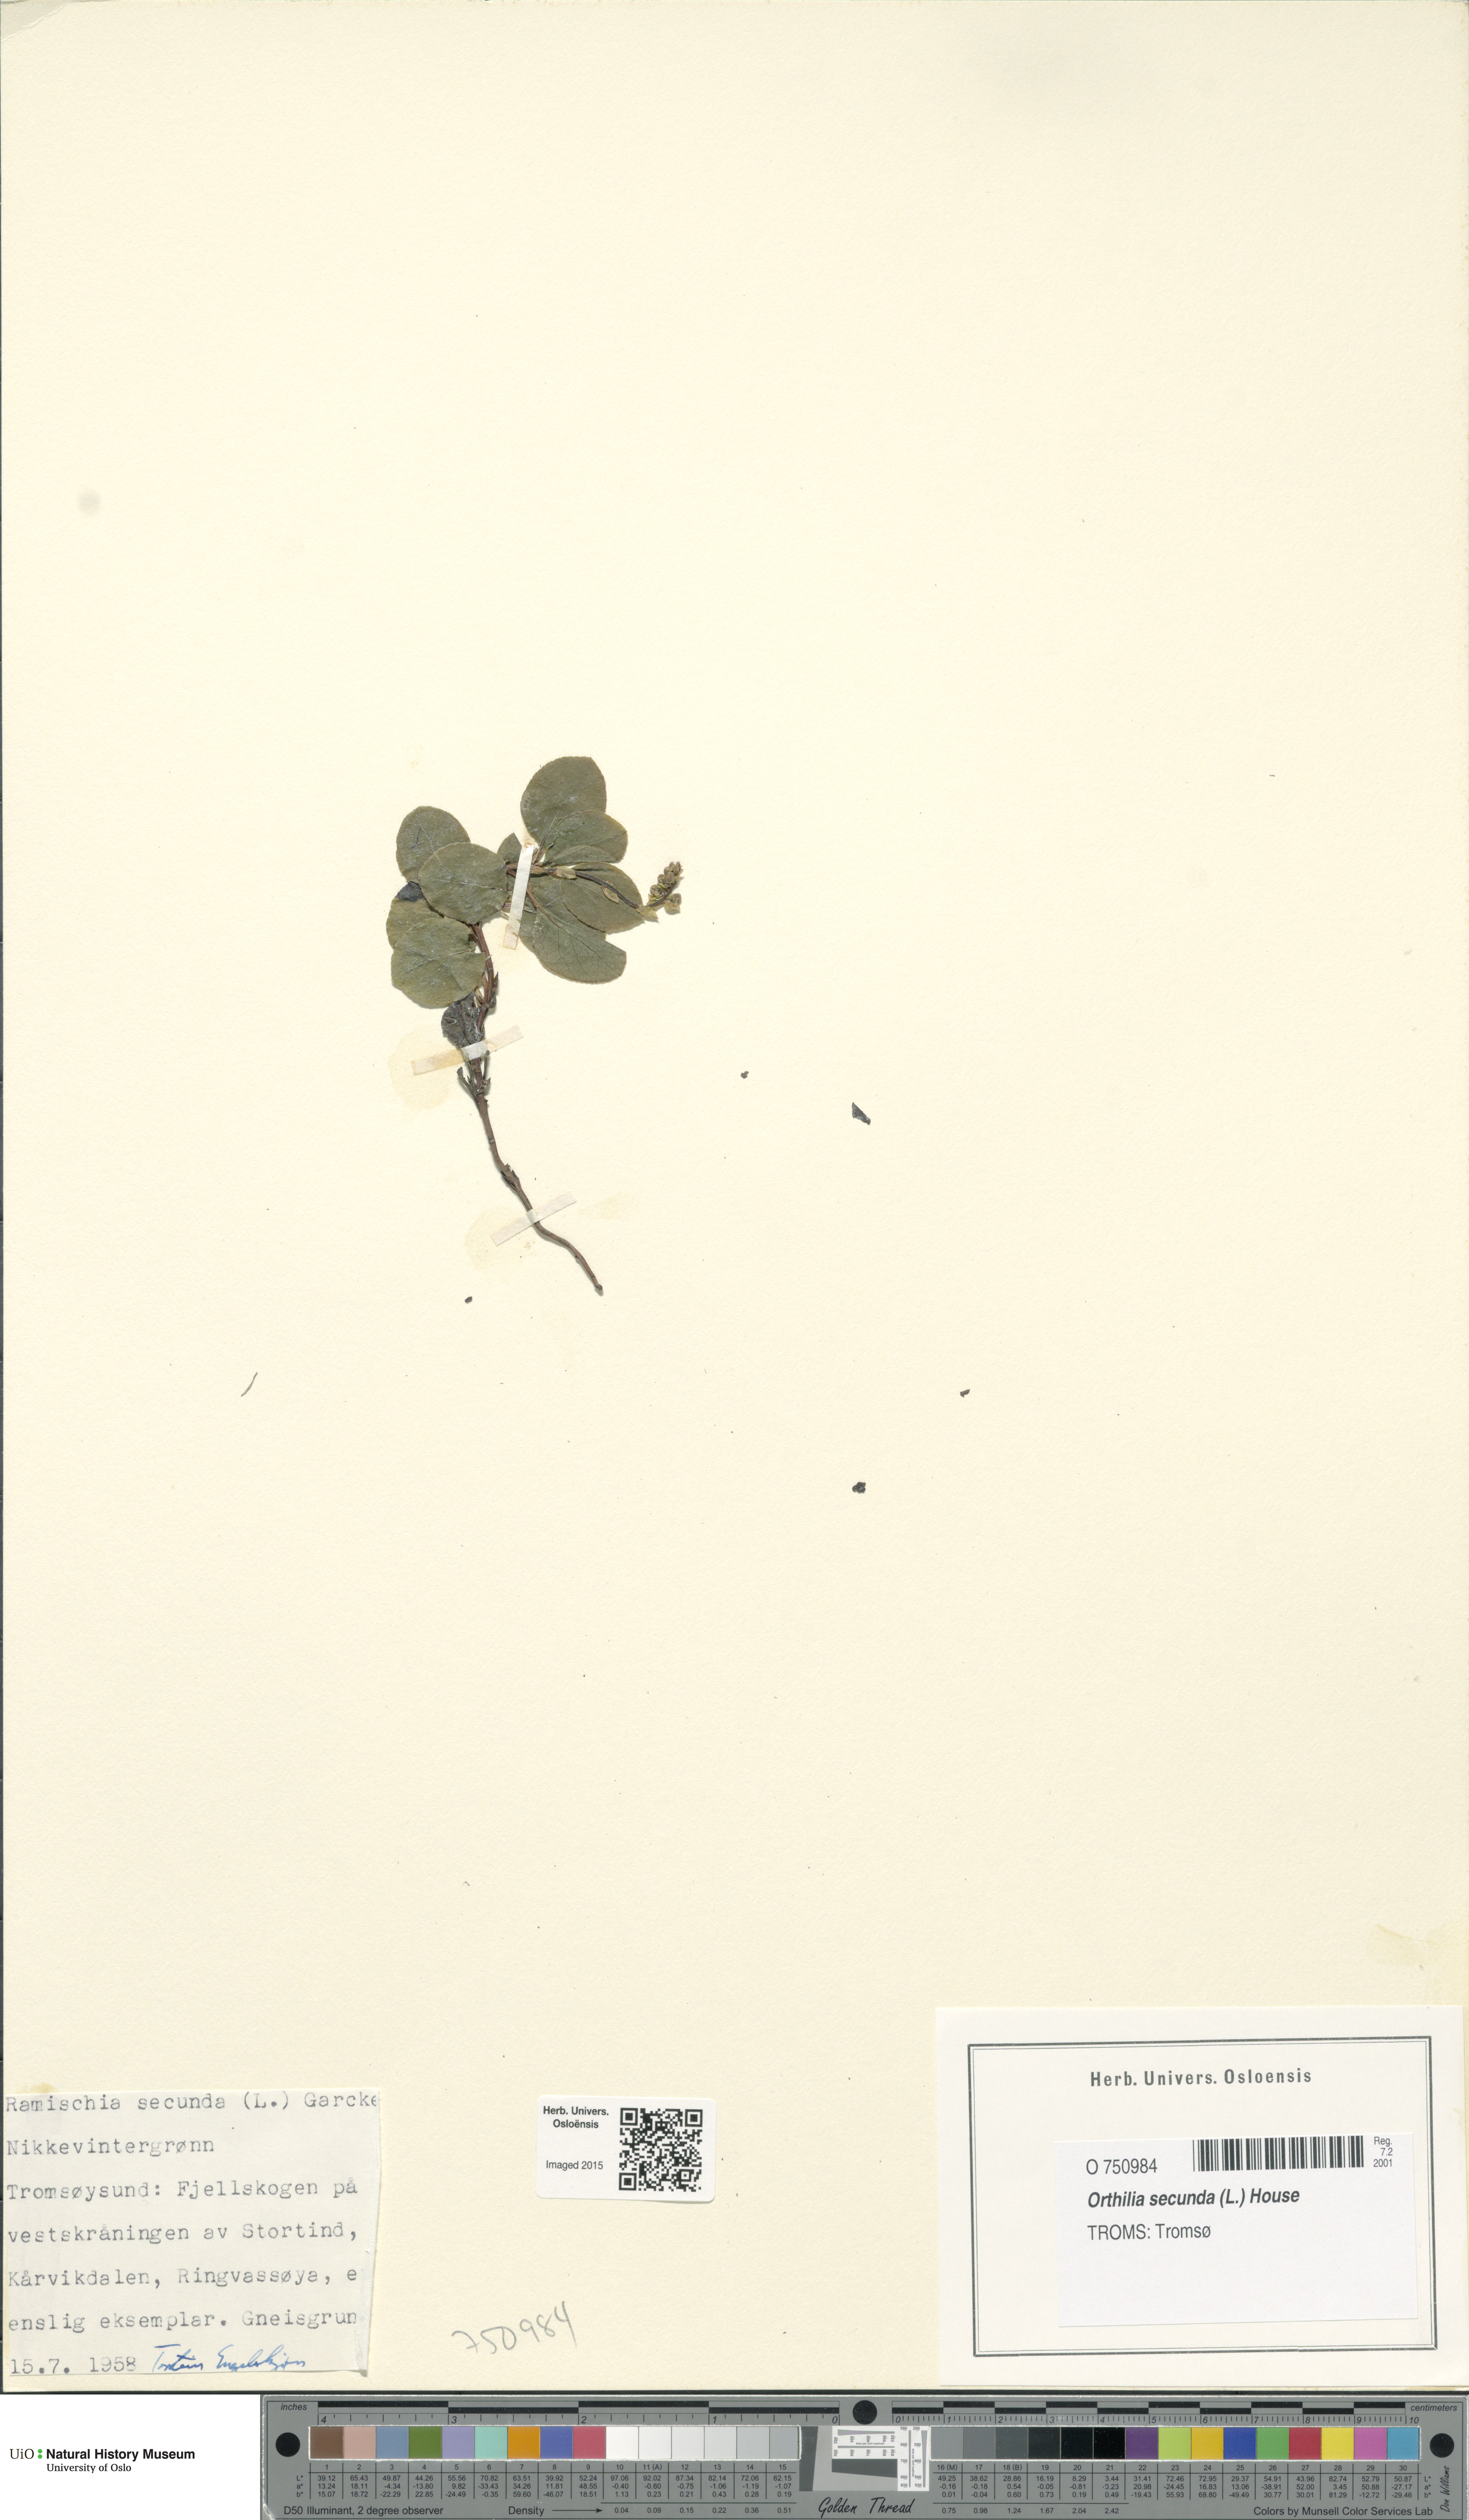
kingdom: Plantae
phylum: Tracheophyta
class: Magnoliopsida
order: Ericales
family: Ericaceae
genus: Orthilia
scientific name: Orthilia secunda
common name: One-sided orthilia
